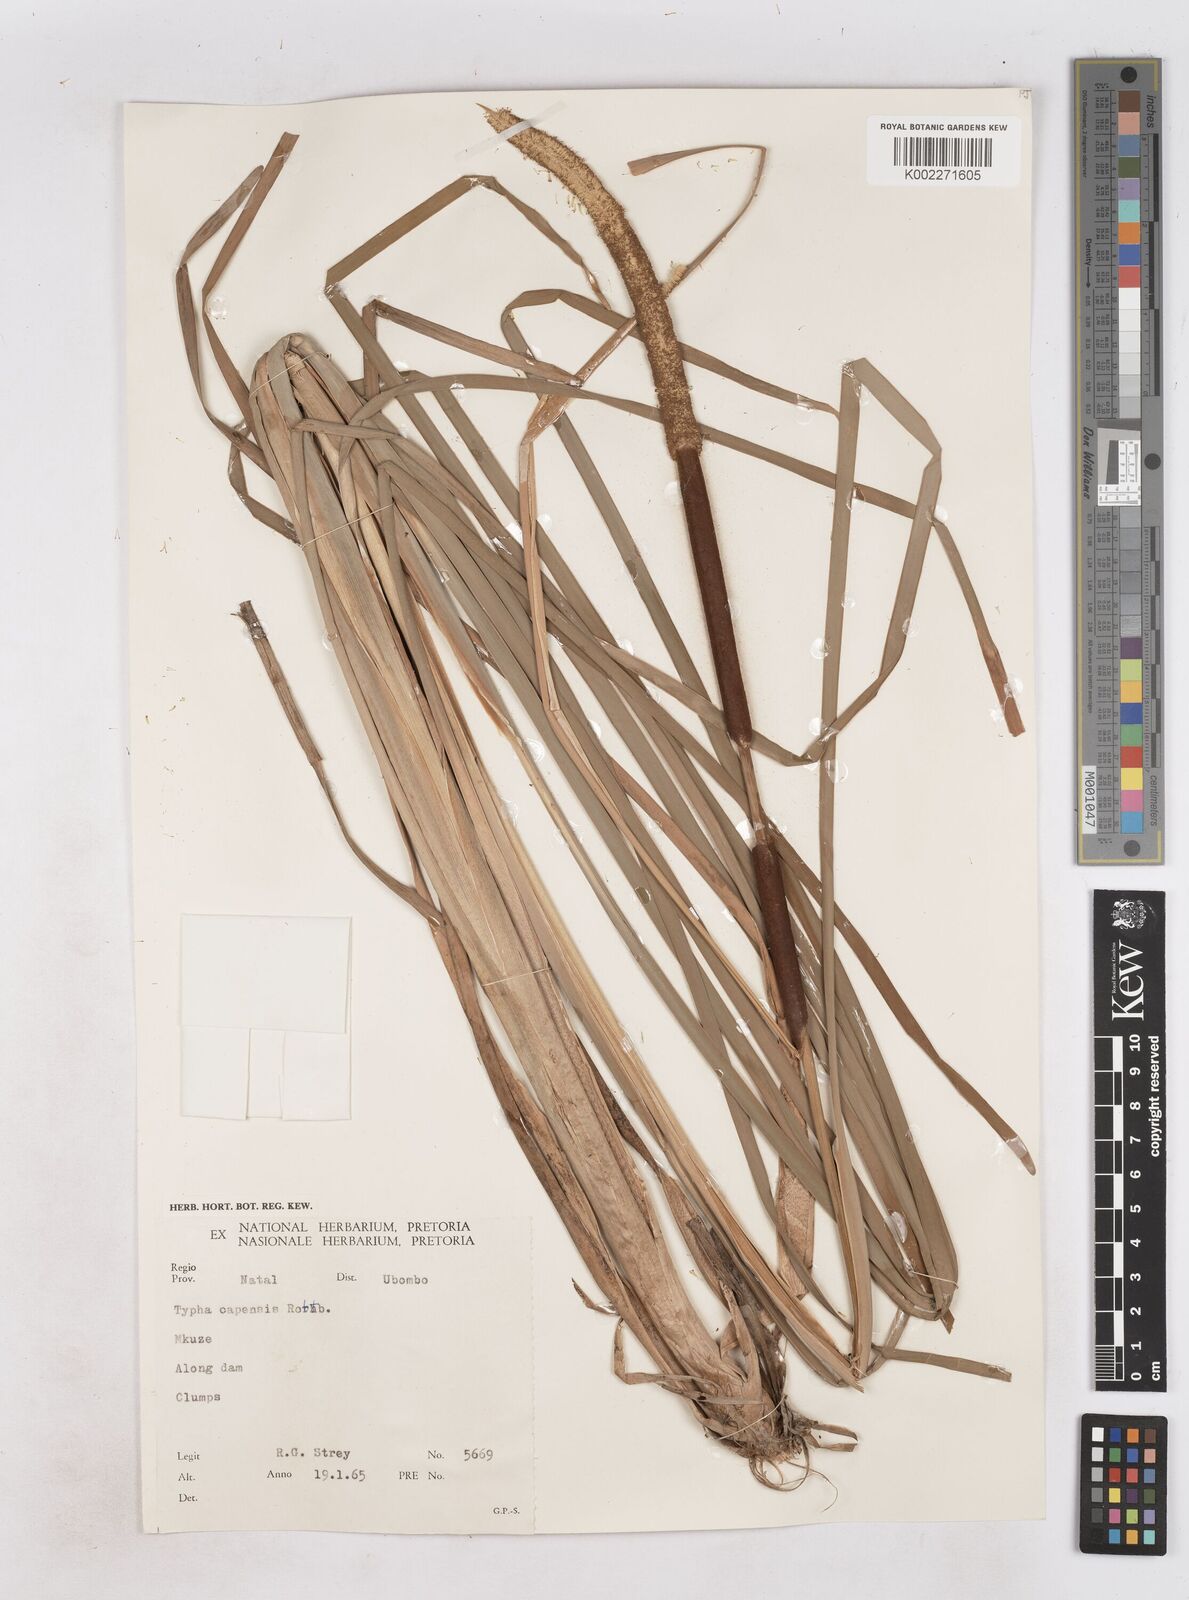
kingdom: Plantae
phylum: Tracheophyta
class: Liliopsida
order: Poales
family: Typhaceae
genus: Typha
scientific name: Typha capensis
